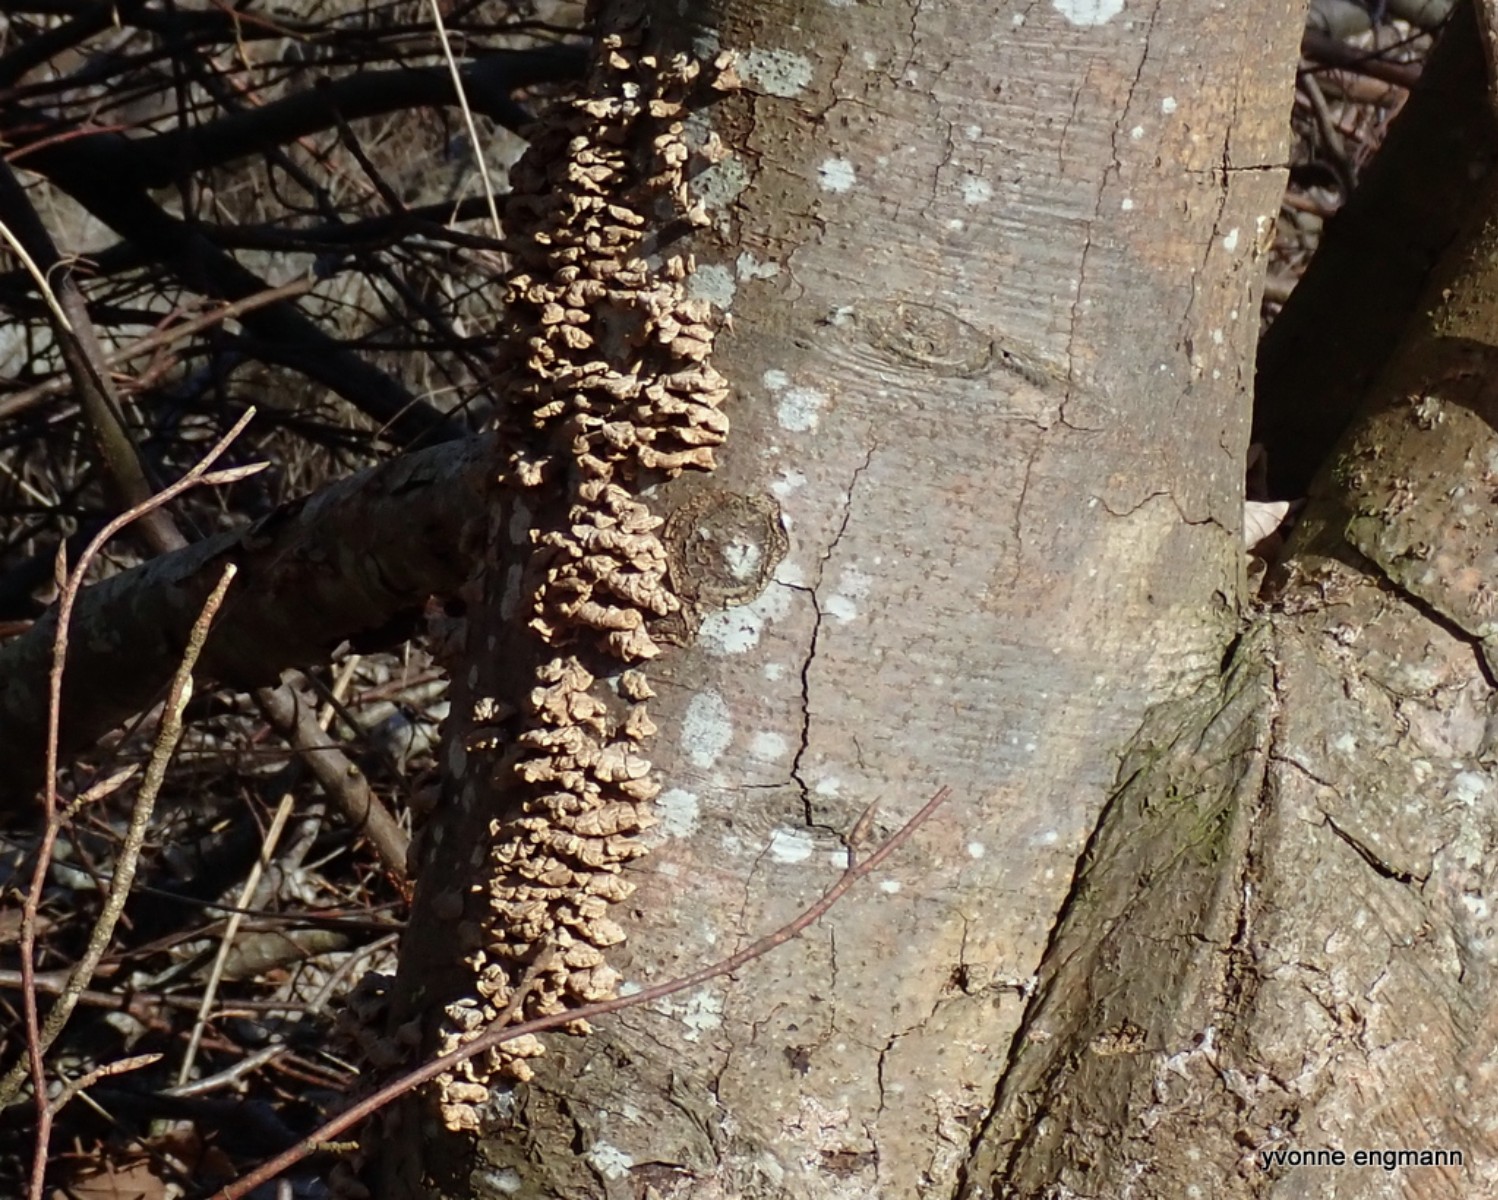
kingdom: Fungi
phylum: Basidiomycota
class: Agaricomycetes
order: Amylocorticiales
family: Amylocorticiaceae
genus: Plicaturopsis
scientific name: Plicaturopsis crispa
